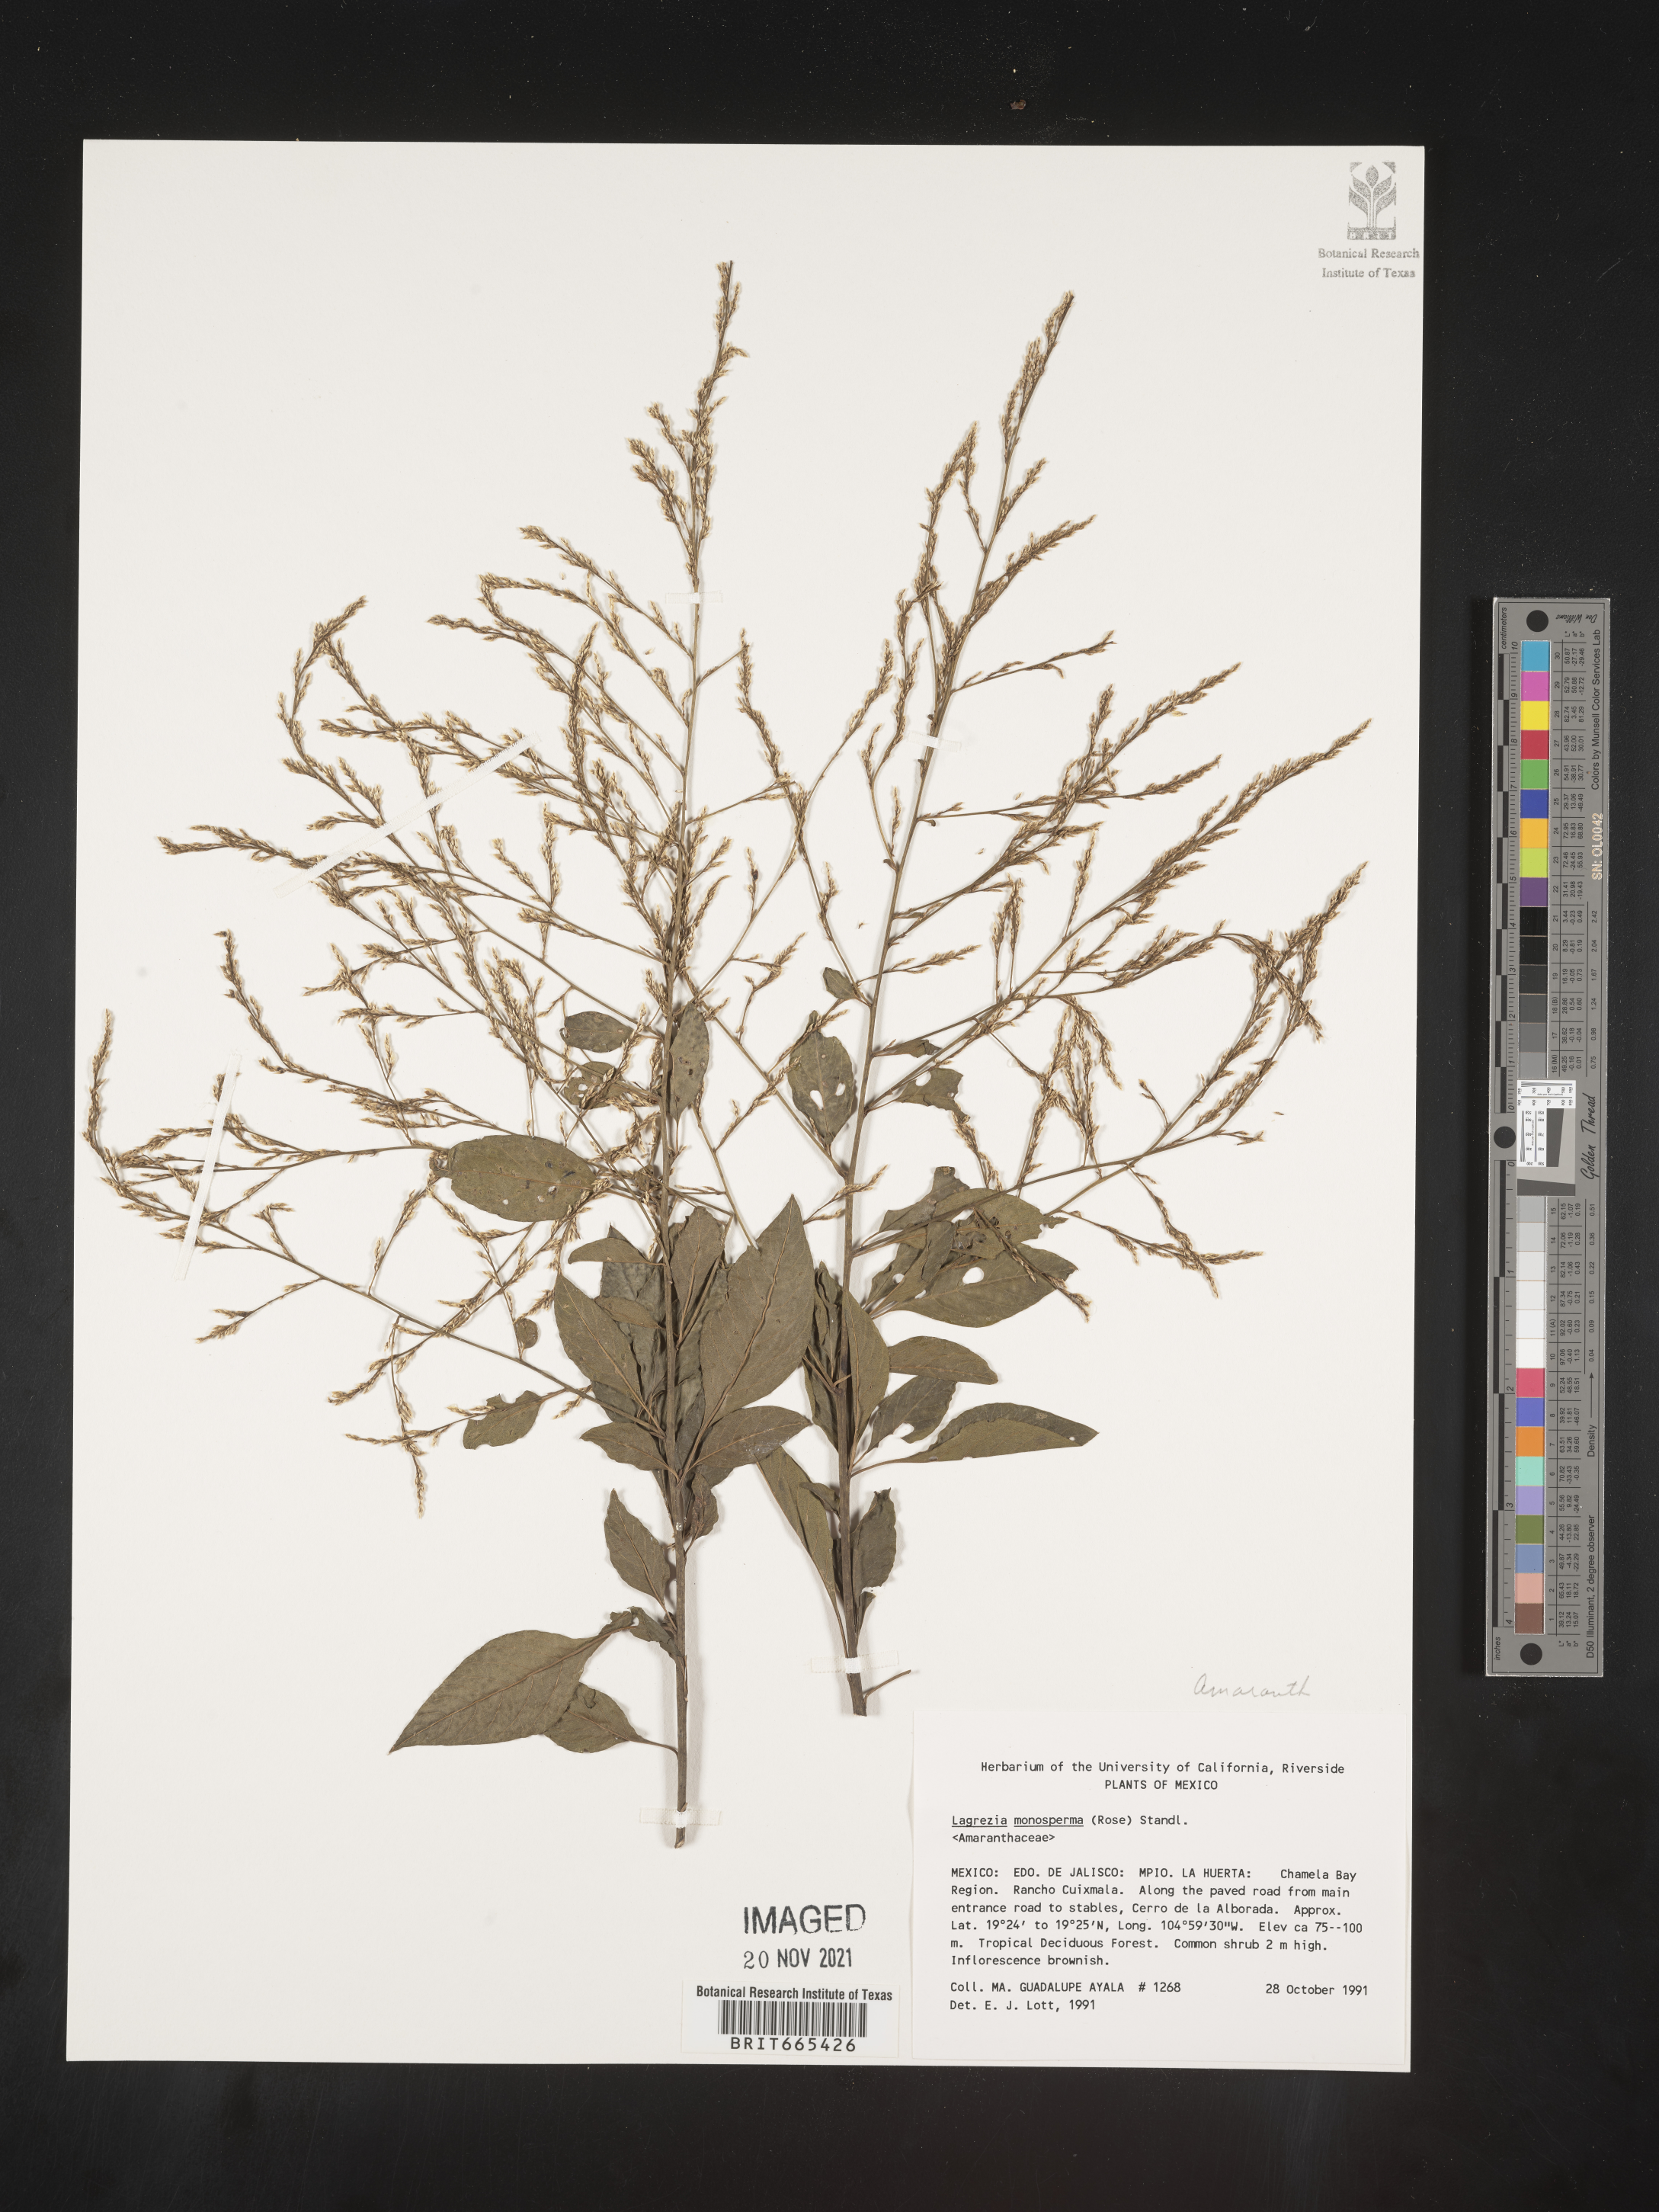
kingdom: Plantae
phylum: Tracheophyta
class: Magnoliopsida
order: Caryophyllales
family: Amaranthaceae
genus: Lagrezia
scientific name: Lagrezia
